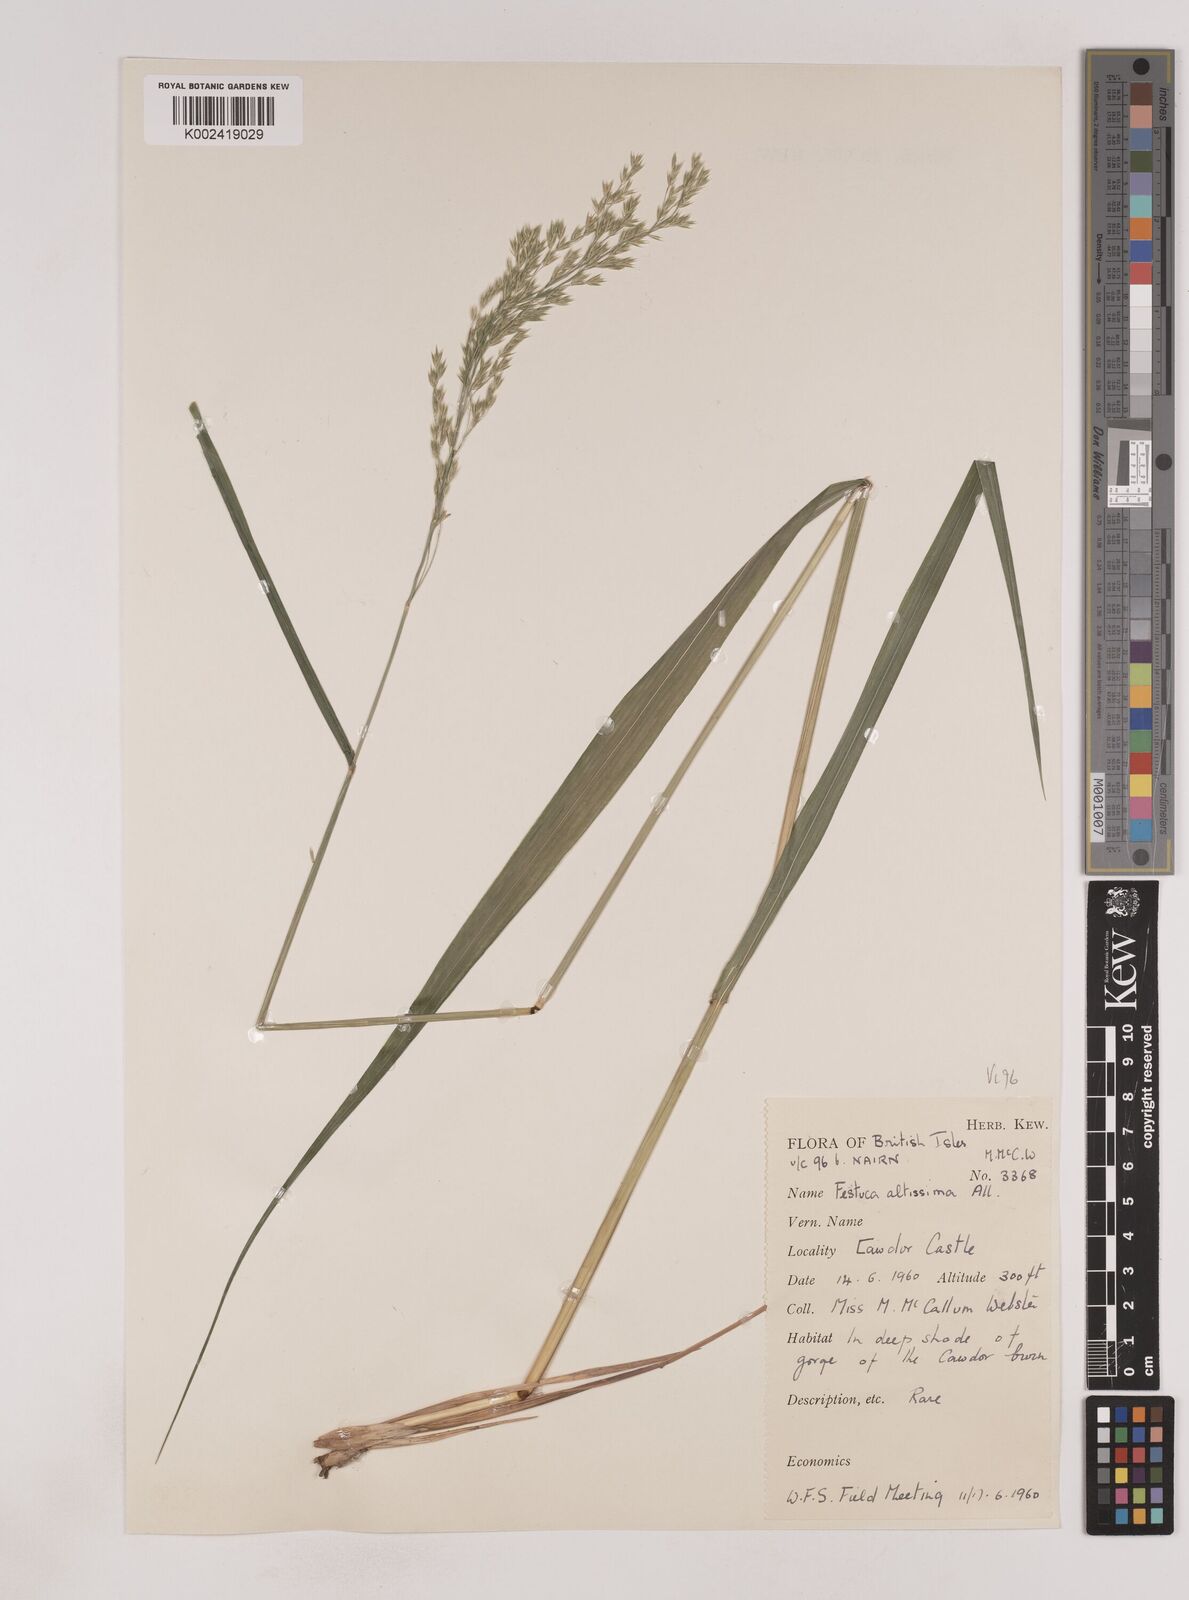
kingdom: Plantae
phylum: Tracheophyta
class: Liliopsida
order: Poales
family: Poaceae
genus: Festuca
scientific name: Festuca drymeja
